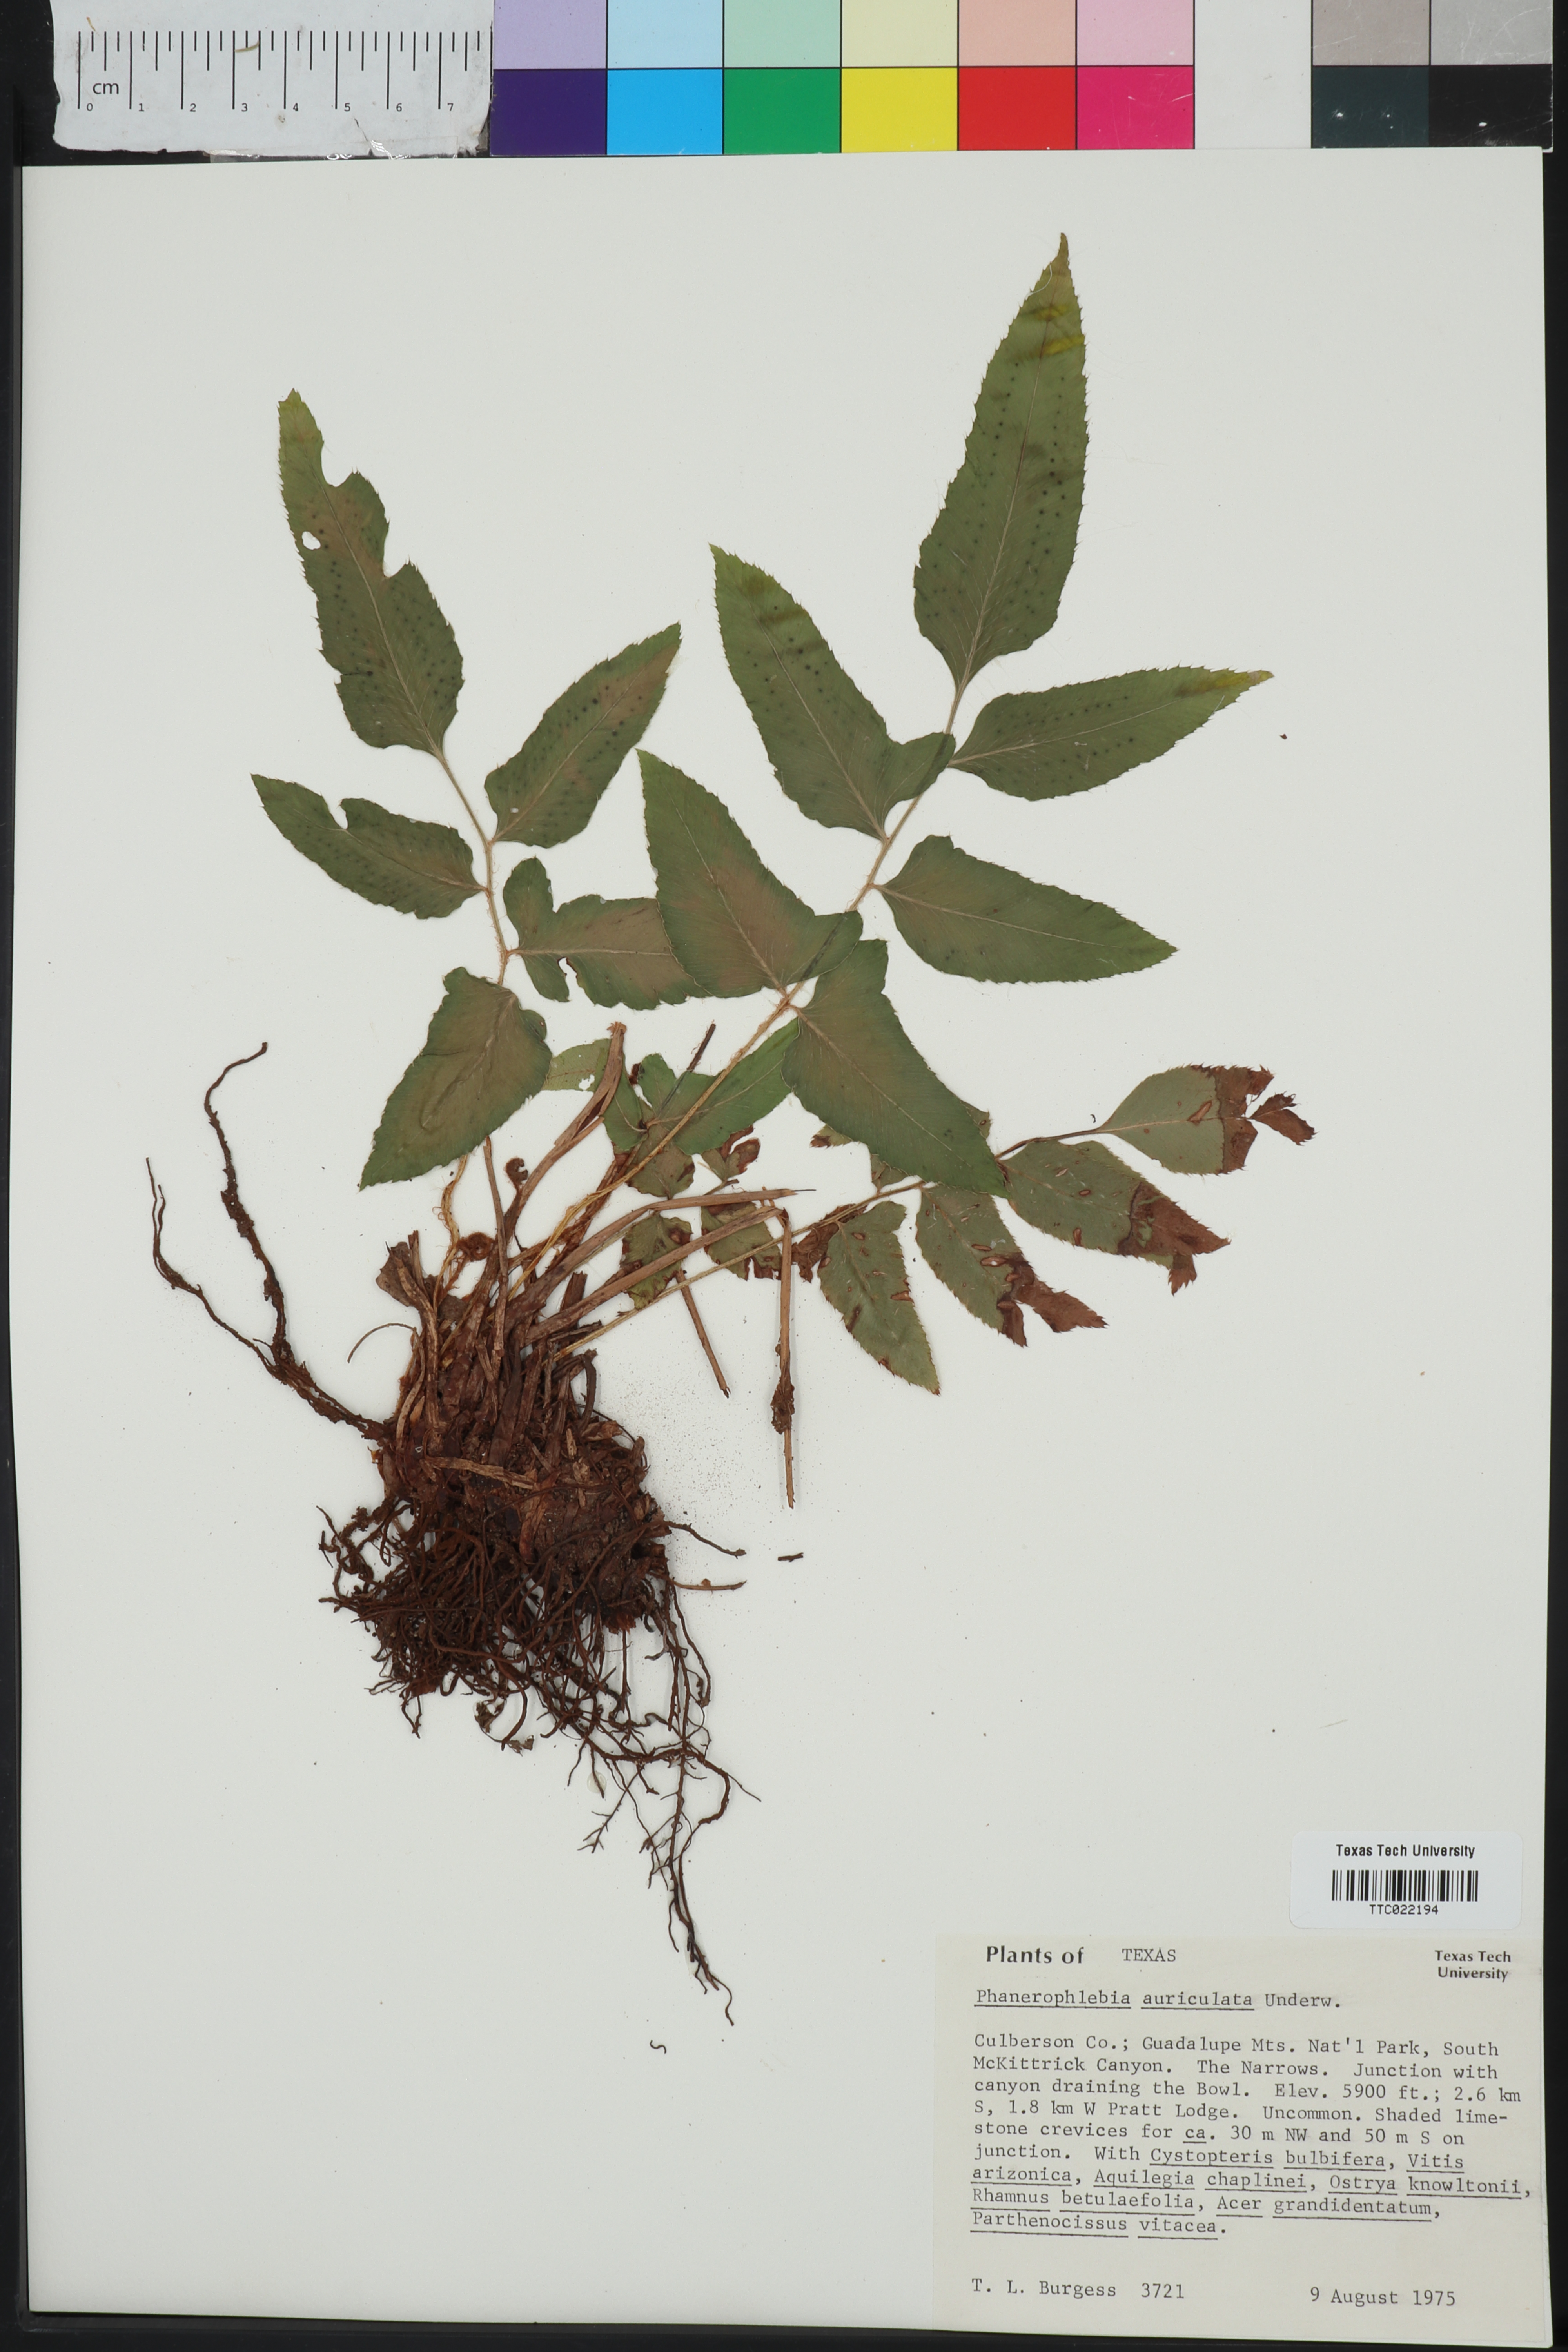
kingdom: Plantae
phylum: Tracheophyta
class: Polypodiopsida
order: Polypodiales
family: Dryopteridaceae
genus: Phanerophlebia
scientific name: Phanerophlebia auriculata
